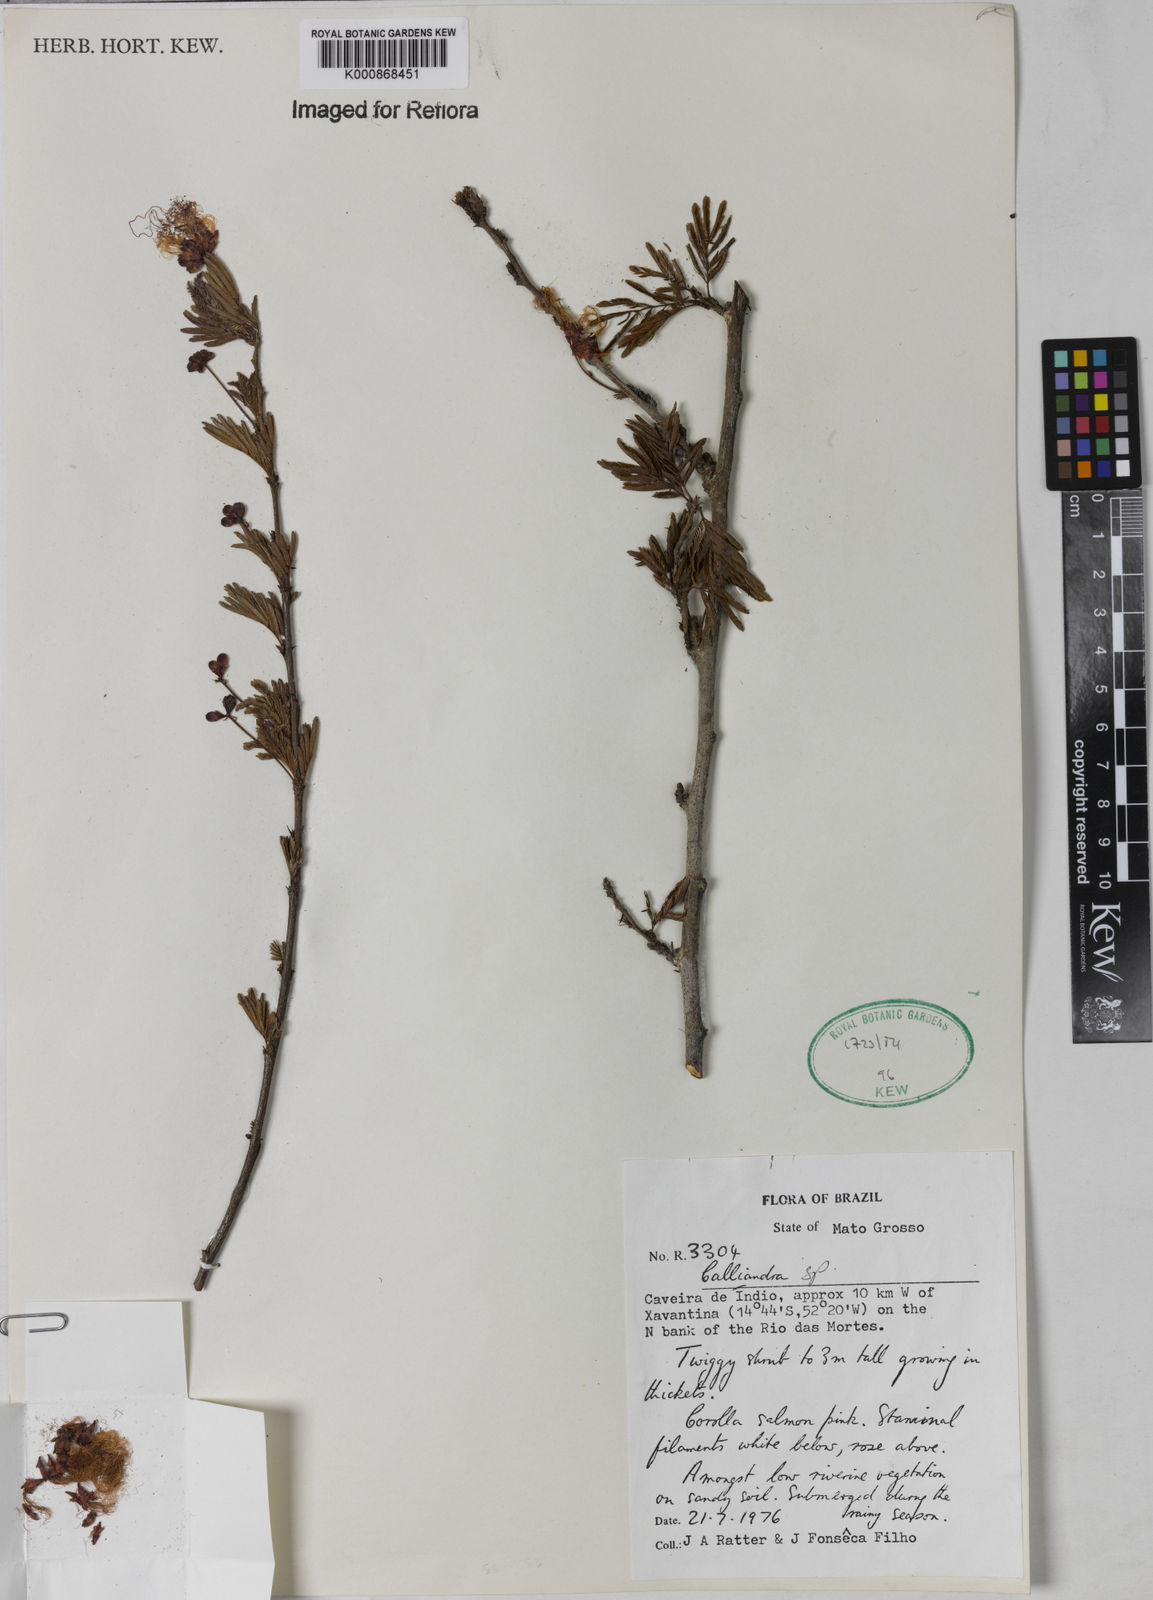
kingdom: Plantae
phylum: Tracheophyta
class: Magnoliopsida
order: Fabales
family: Fabaceae
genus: Calliandra
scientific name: Calliandra
